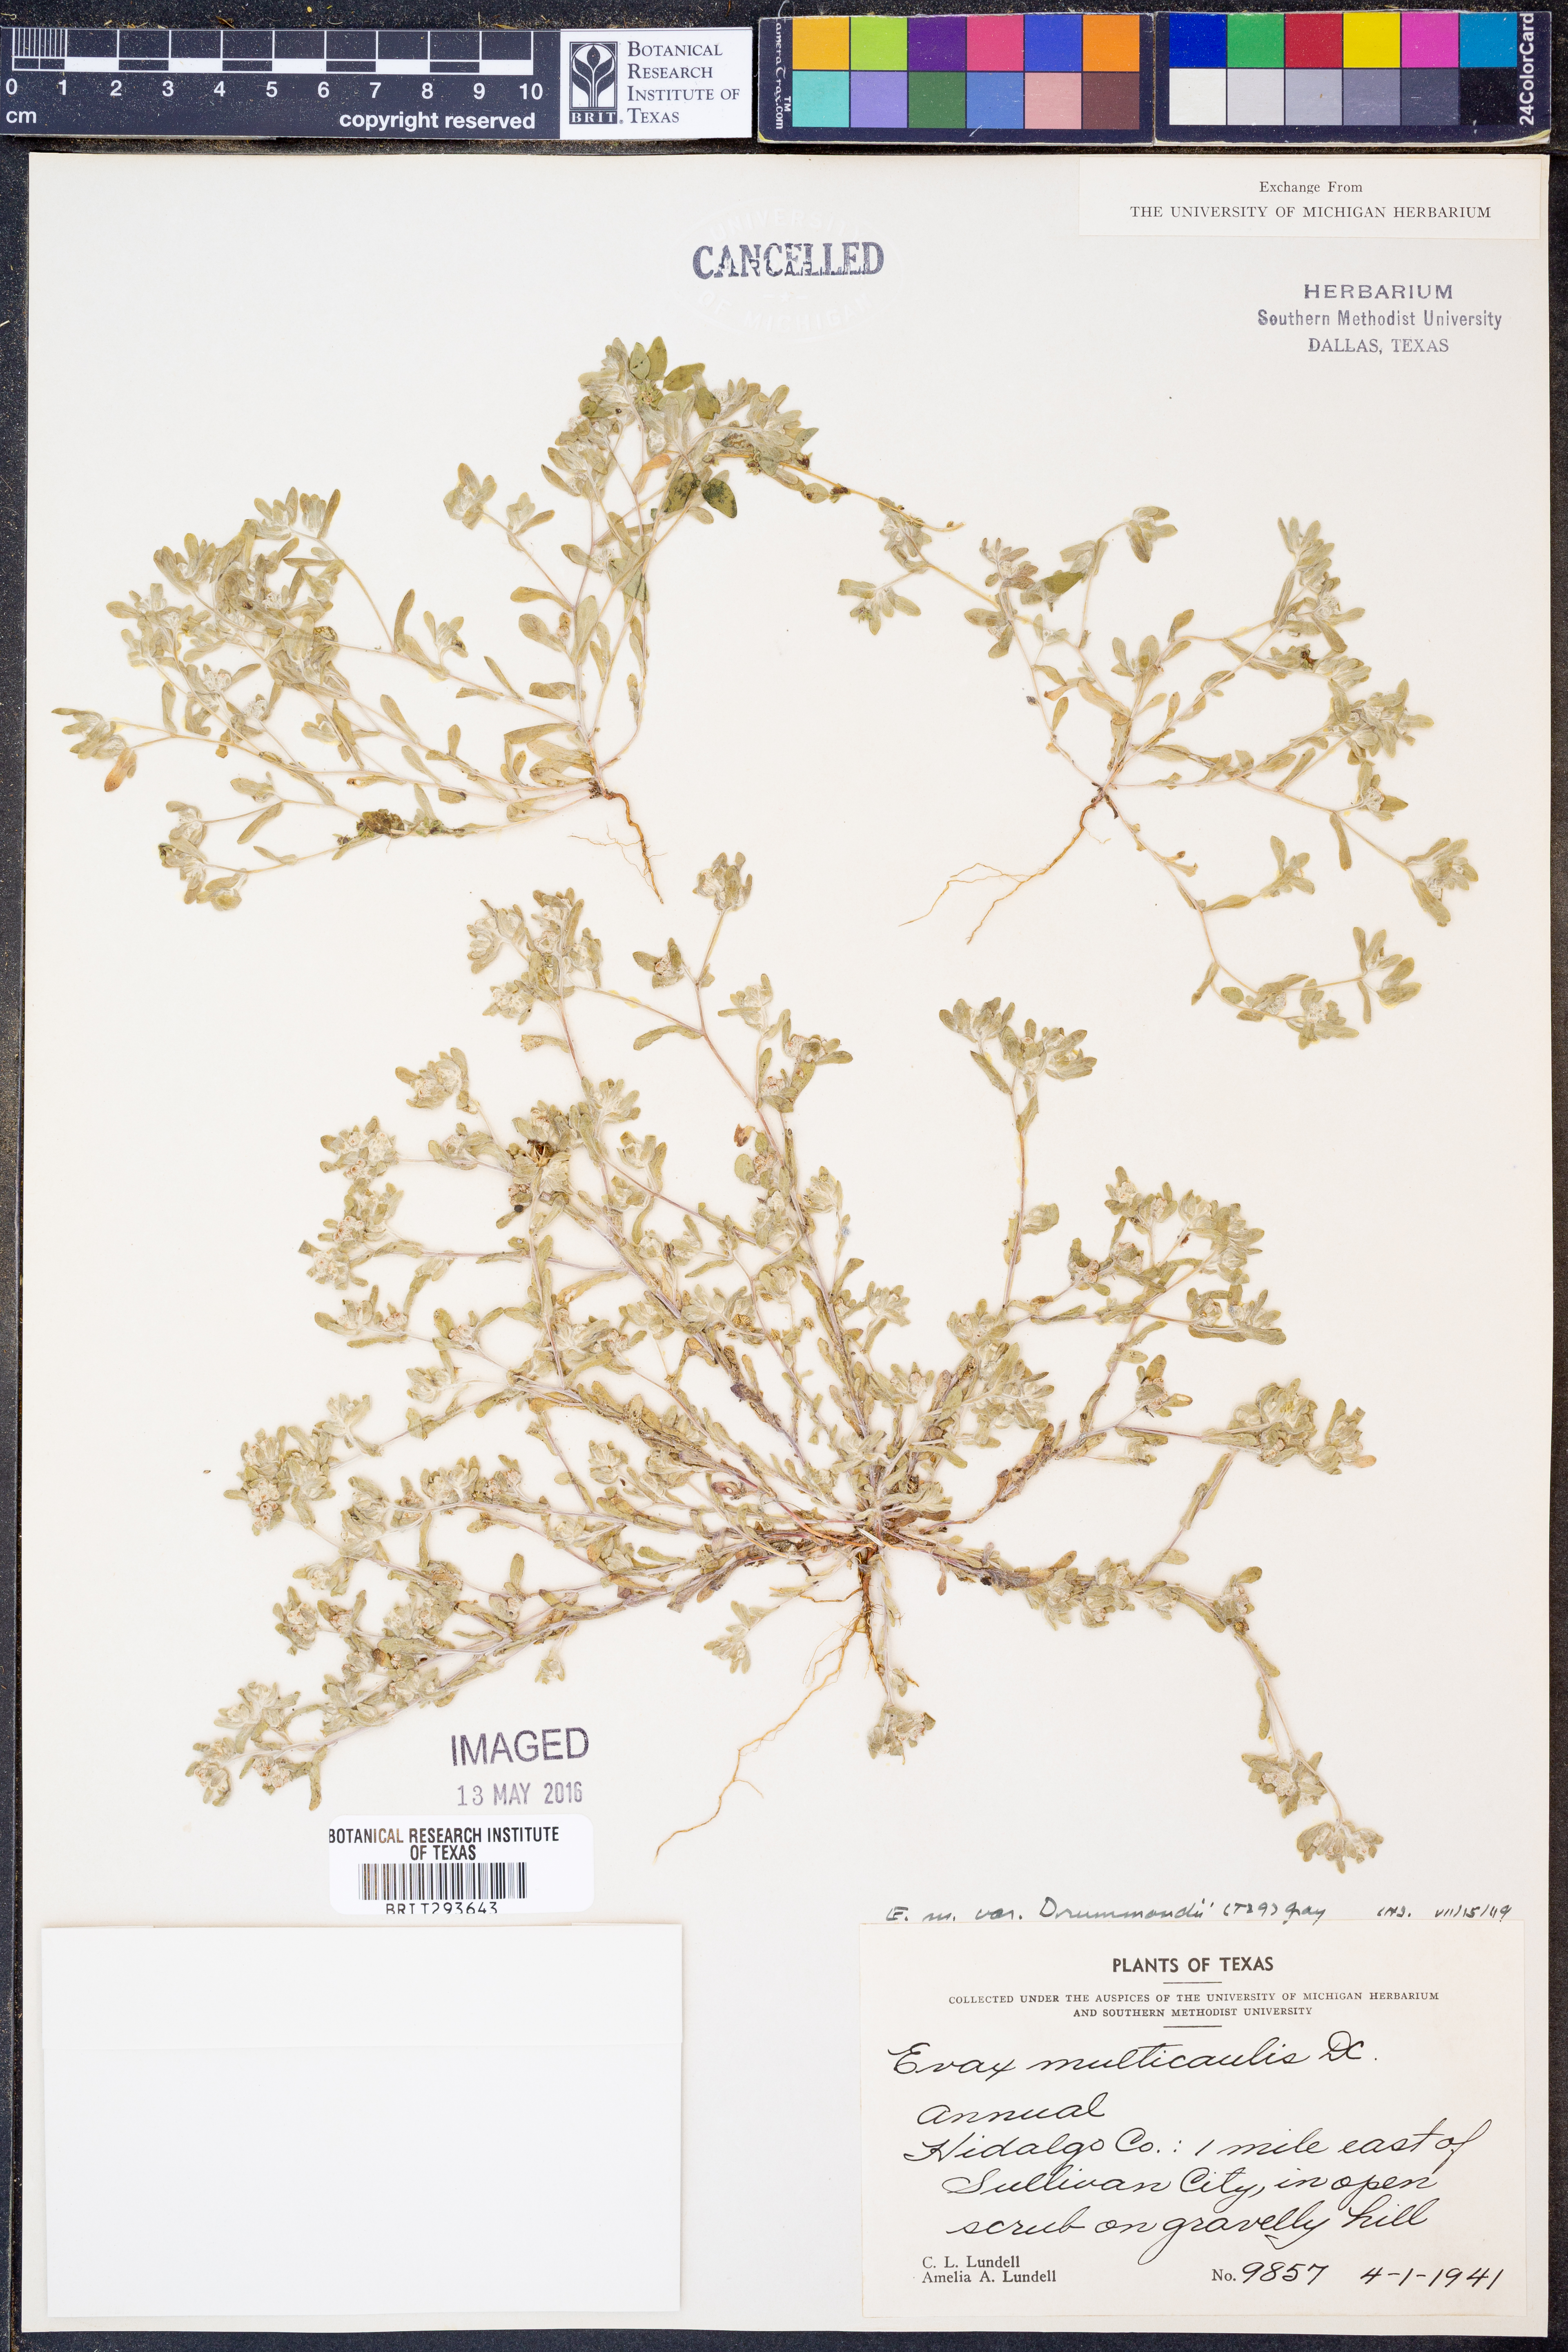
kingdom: Plantae
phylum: Tracheophyta
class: Magnoliopsida
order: Asterales
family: Asteraceae
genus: Diaperia
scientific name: Diaperia verna
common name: Many-stem rabbit-tobacco
